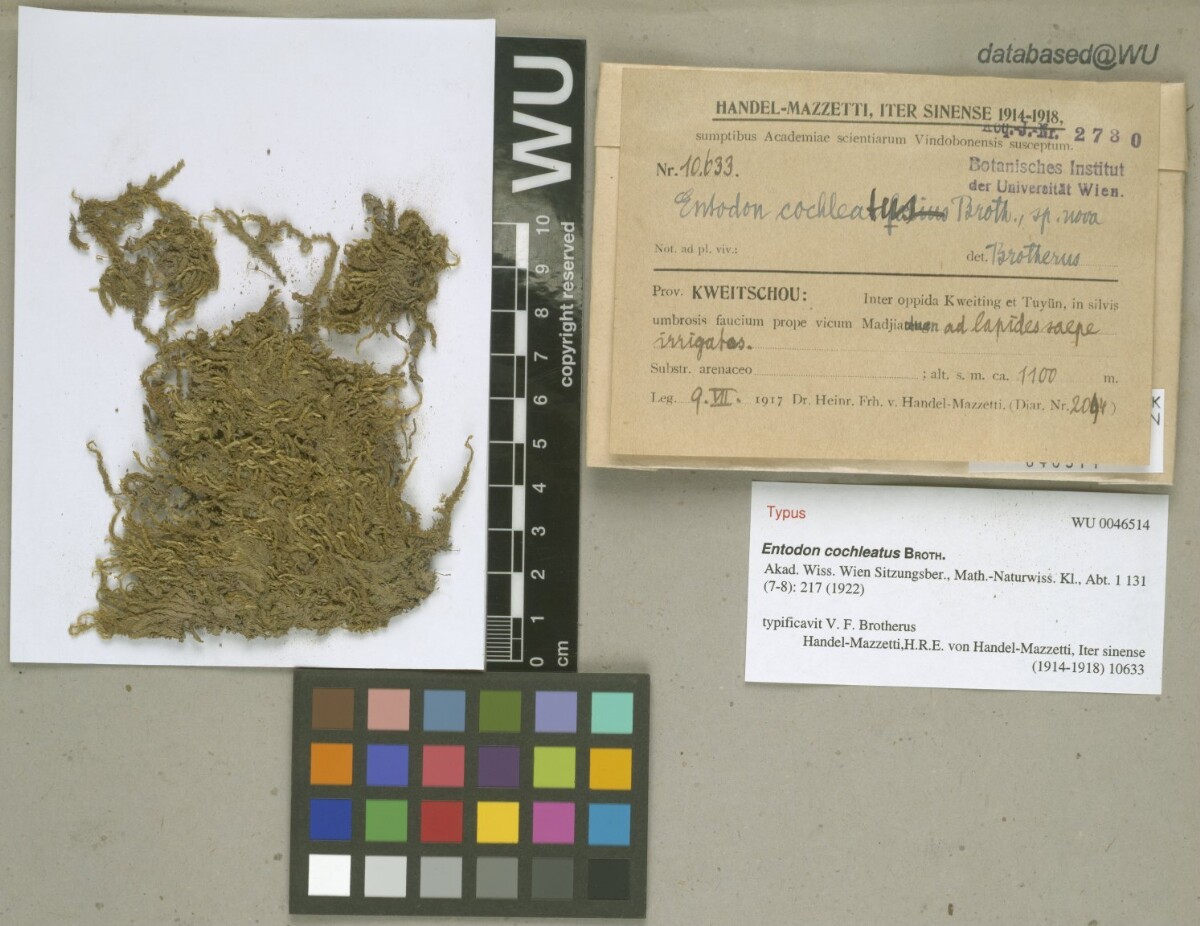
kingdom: Plantae
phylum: Bryophyta
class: Bryopsida
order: Hypnales
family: Entodontaceae
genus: Entodon
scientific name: Entodon luridus
